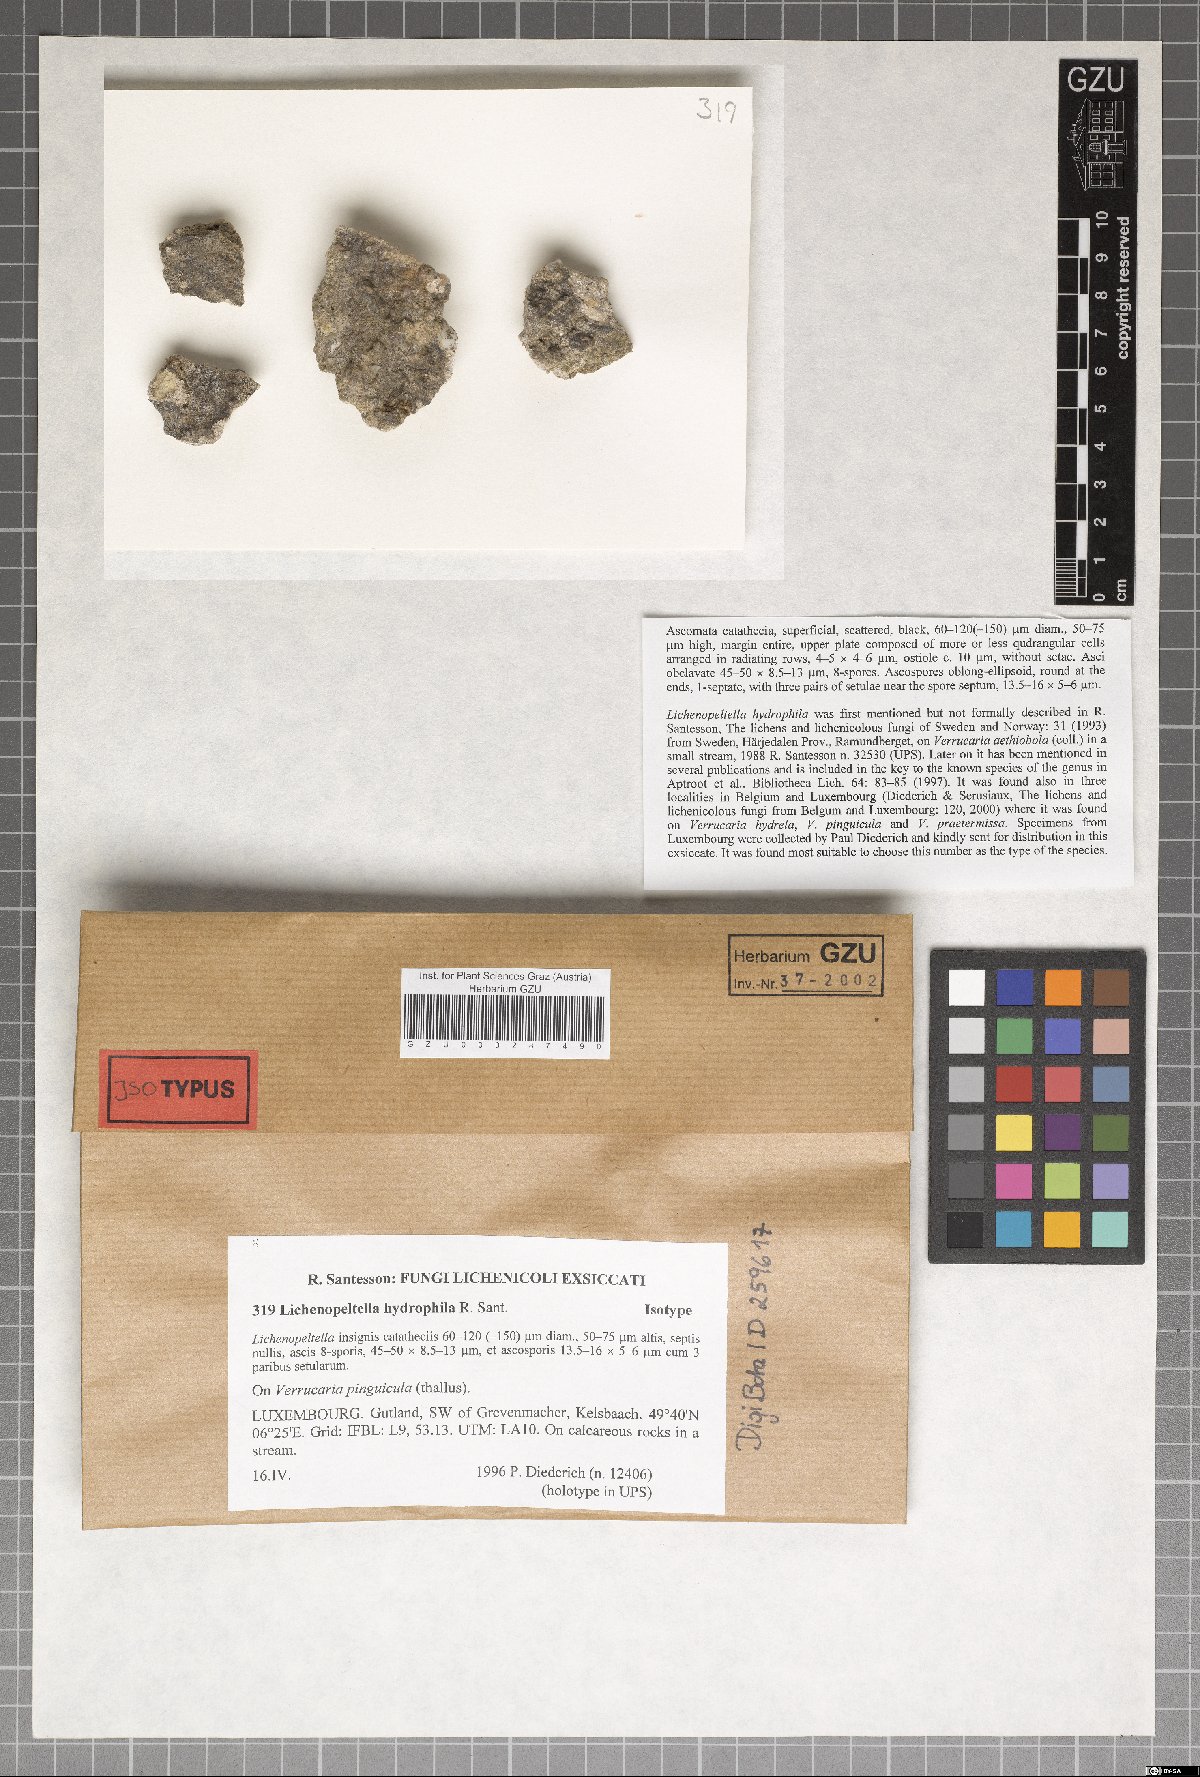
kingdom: Fungi
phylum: Ascomycota
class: Dothideomycetes
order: Microthyriales
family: Microthyriaceae
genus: Lichenopeltella
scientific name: Lichenopeltella hydrophila
